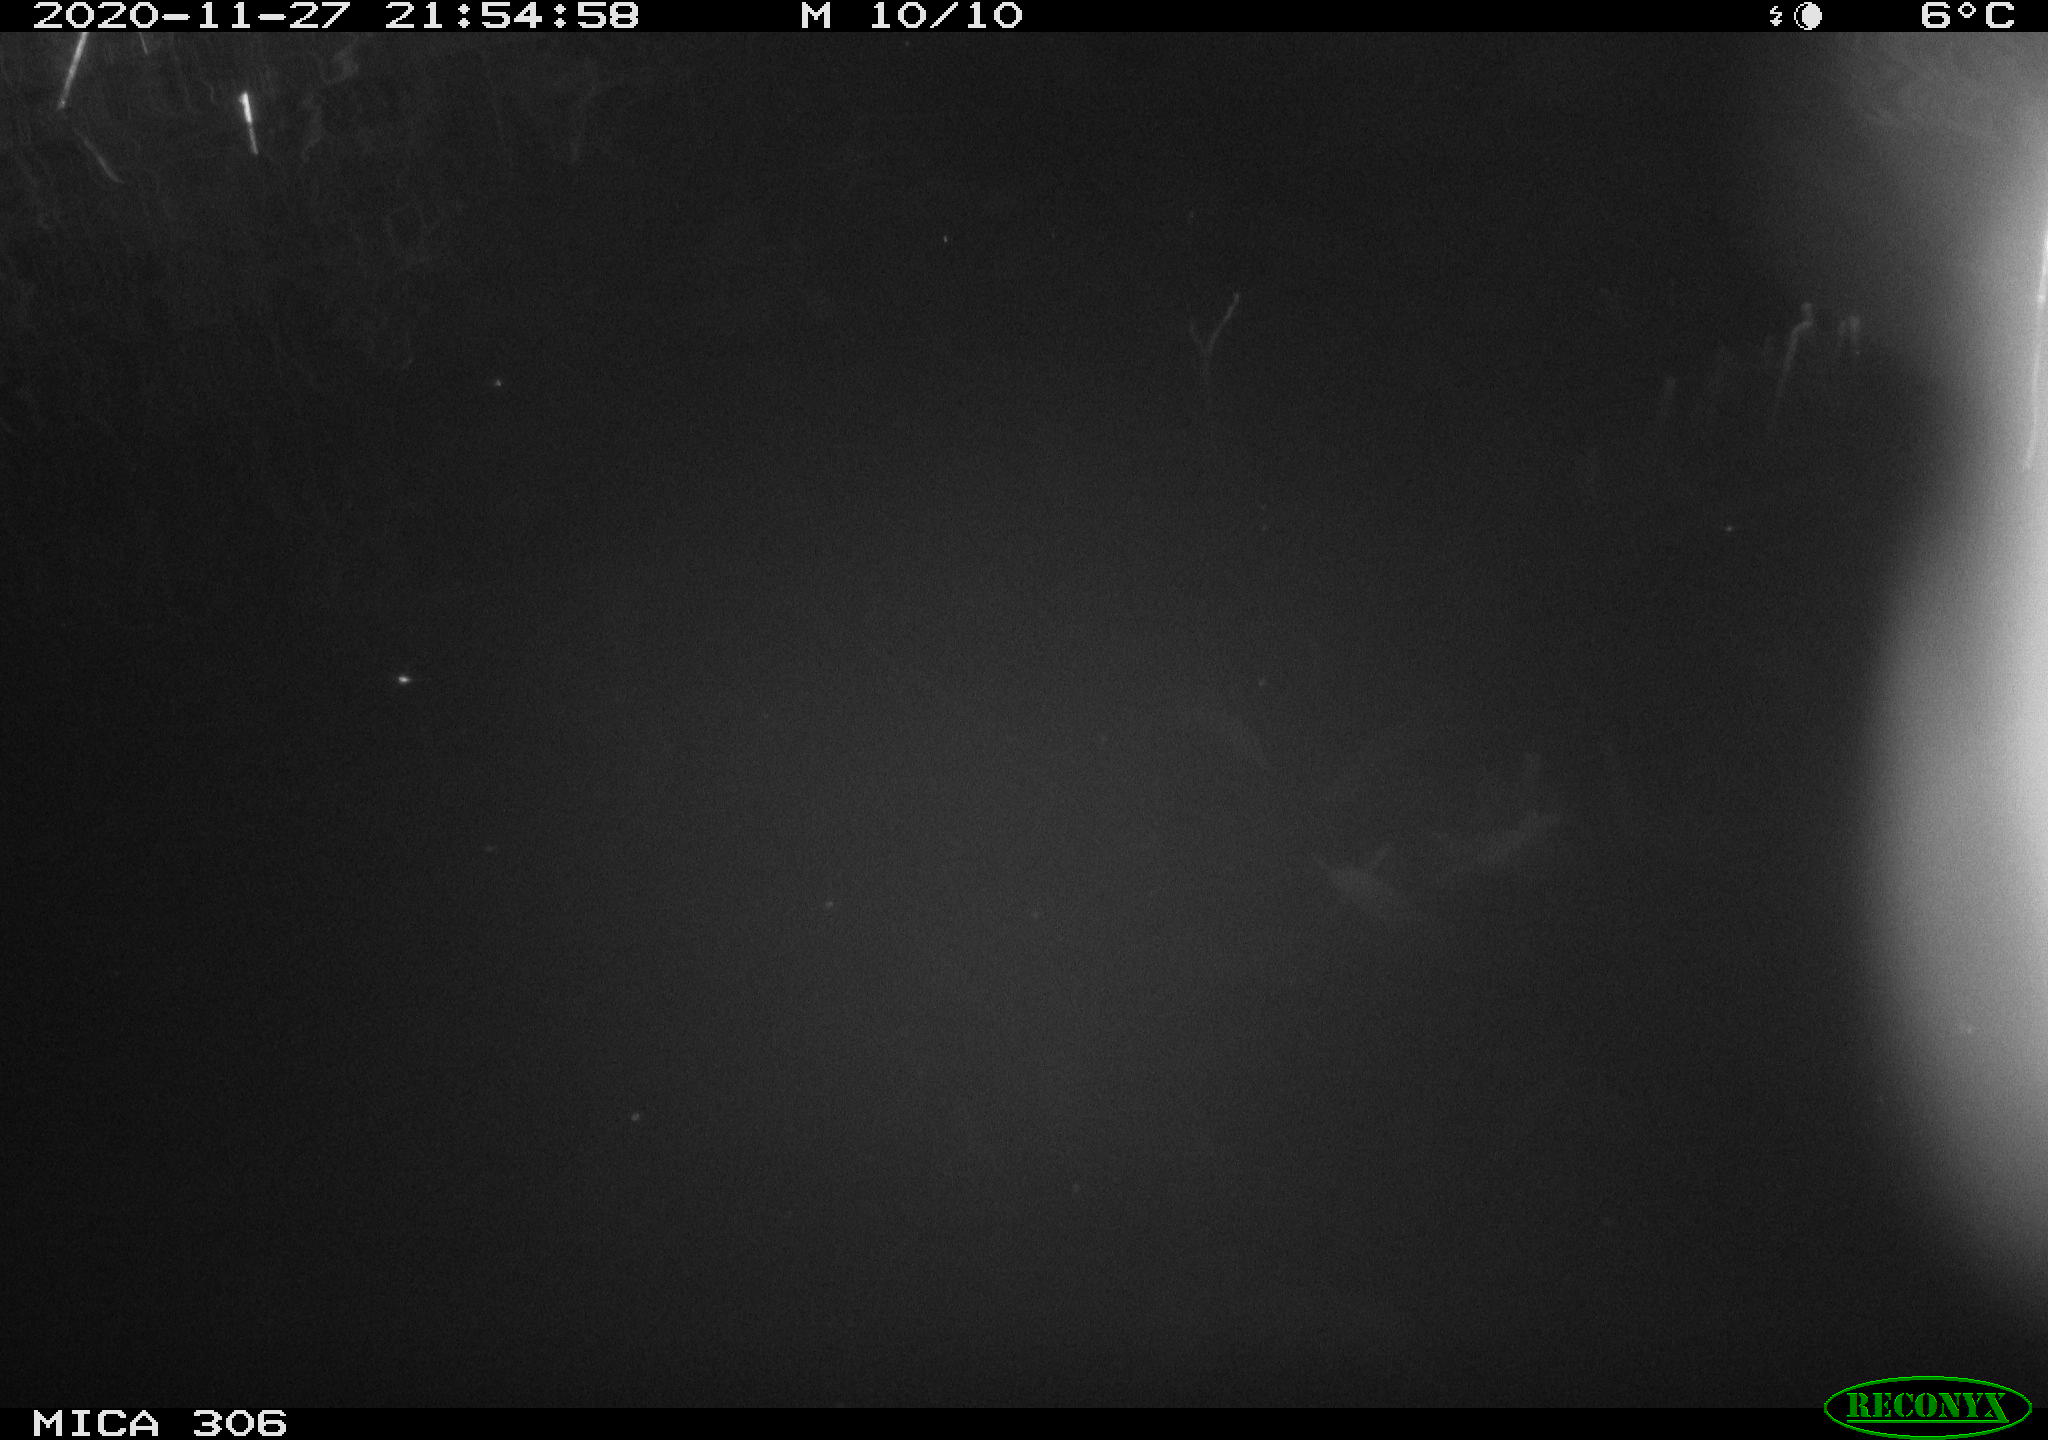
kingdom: Animalia
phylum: Chordata
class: Mammalia
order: Rodentia
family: Cricetidae
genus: Ondatra
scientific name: Ondatra zibethicus
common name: Muskrat
